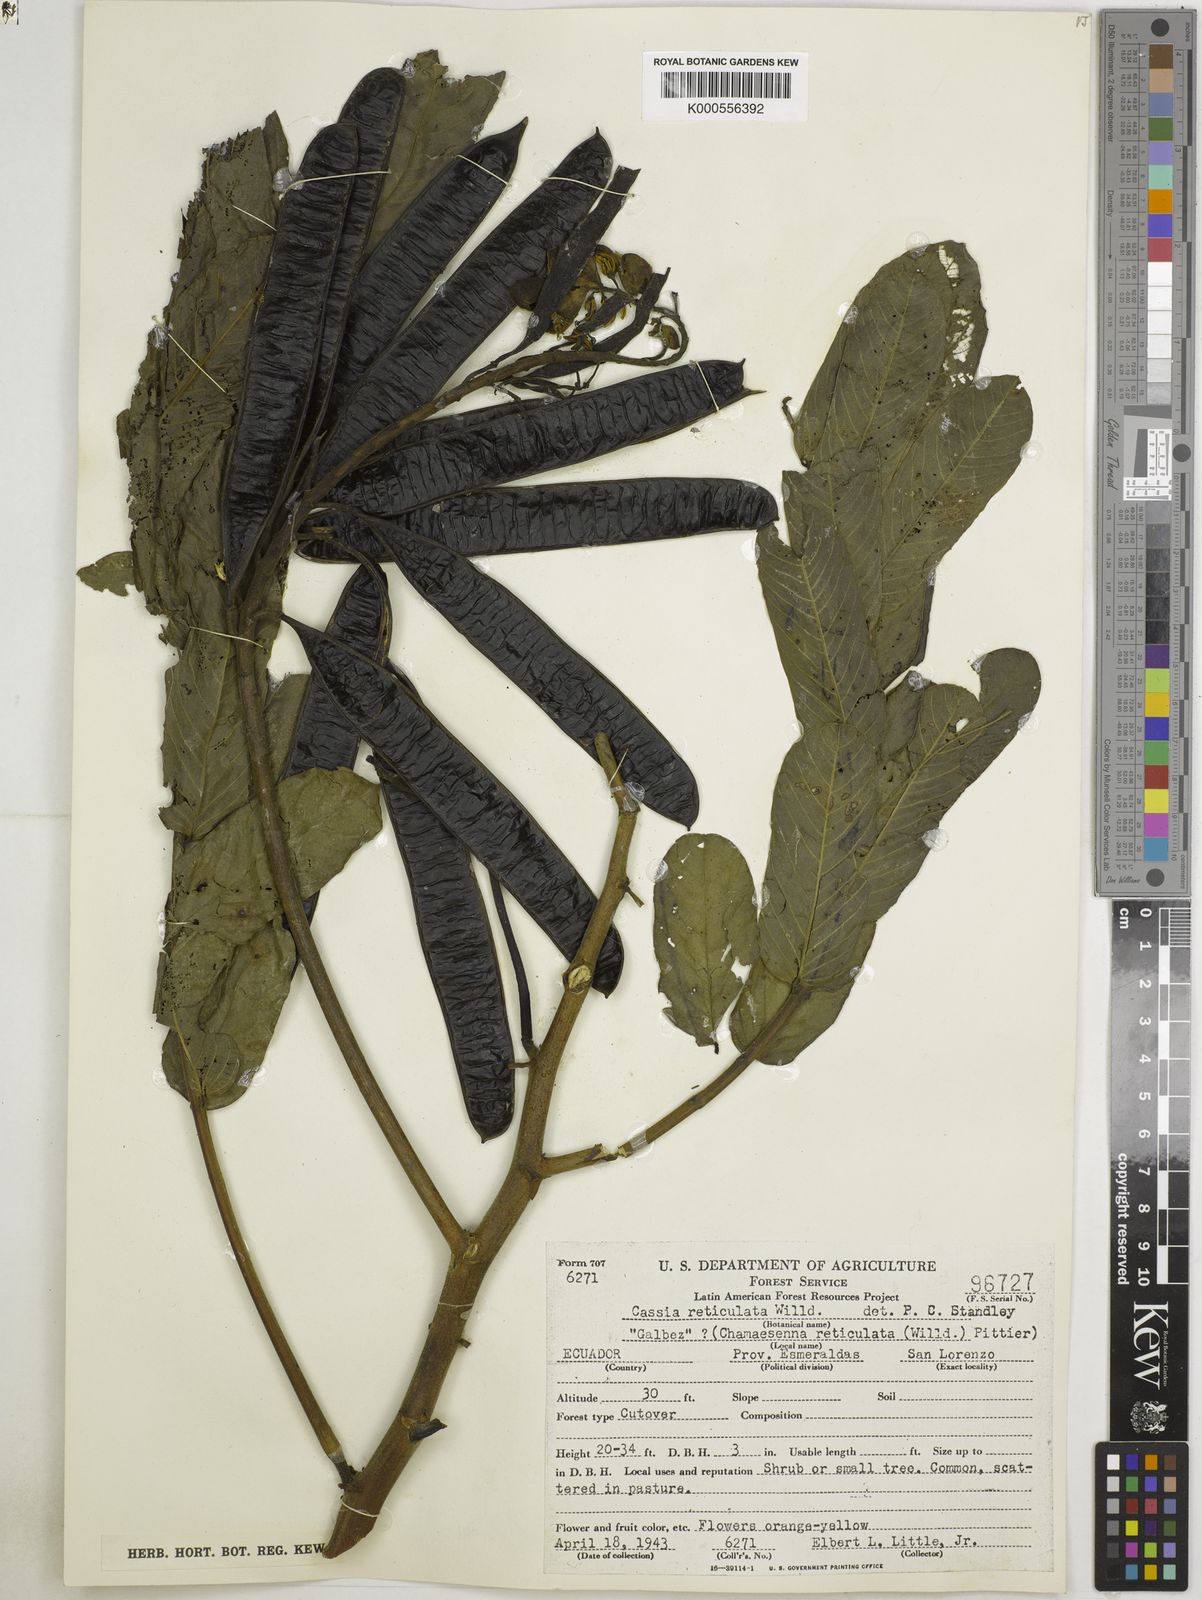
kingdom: Plantae
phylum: Tracheophyta
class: Magnoliopsida
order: Fabales
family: Fabaceae
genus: Senna
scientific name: Senna reticulata
